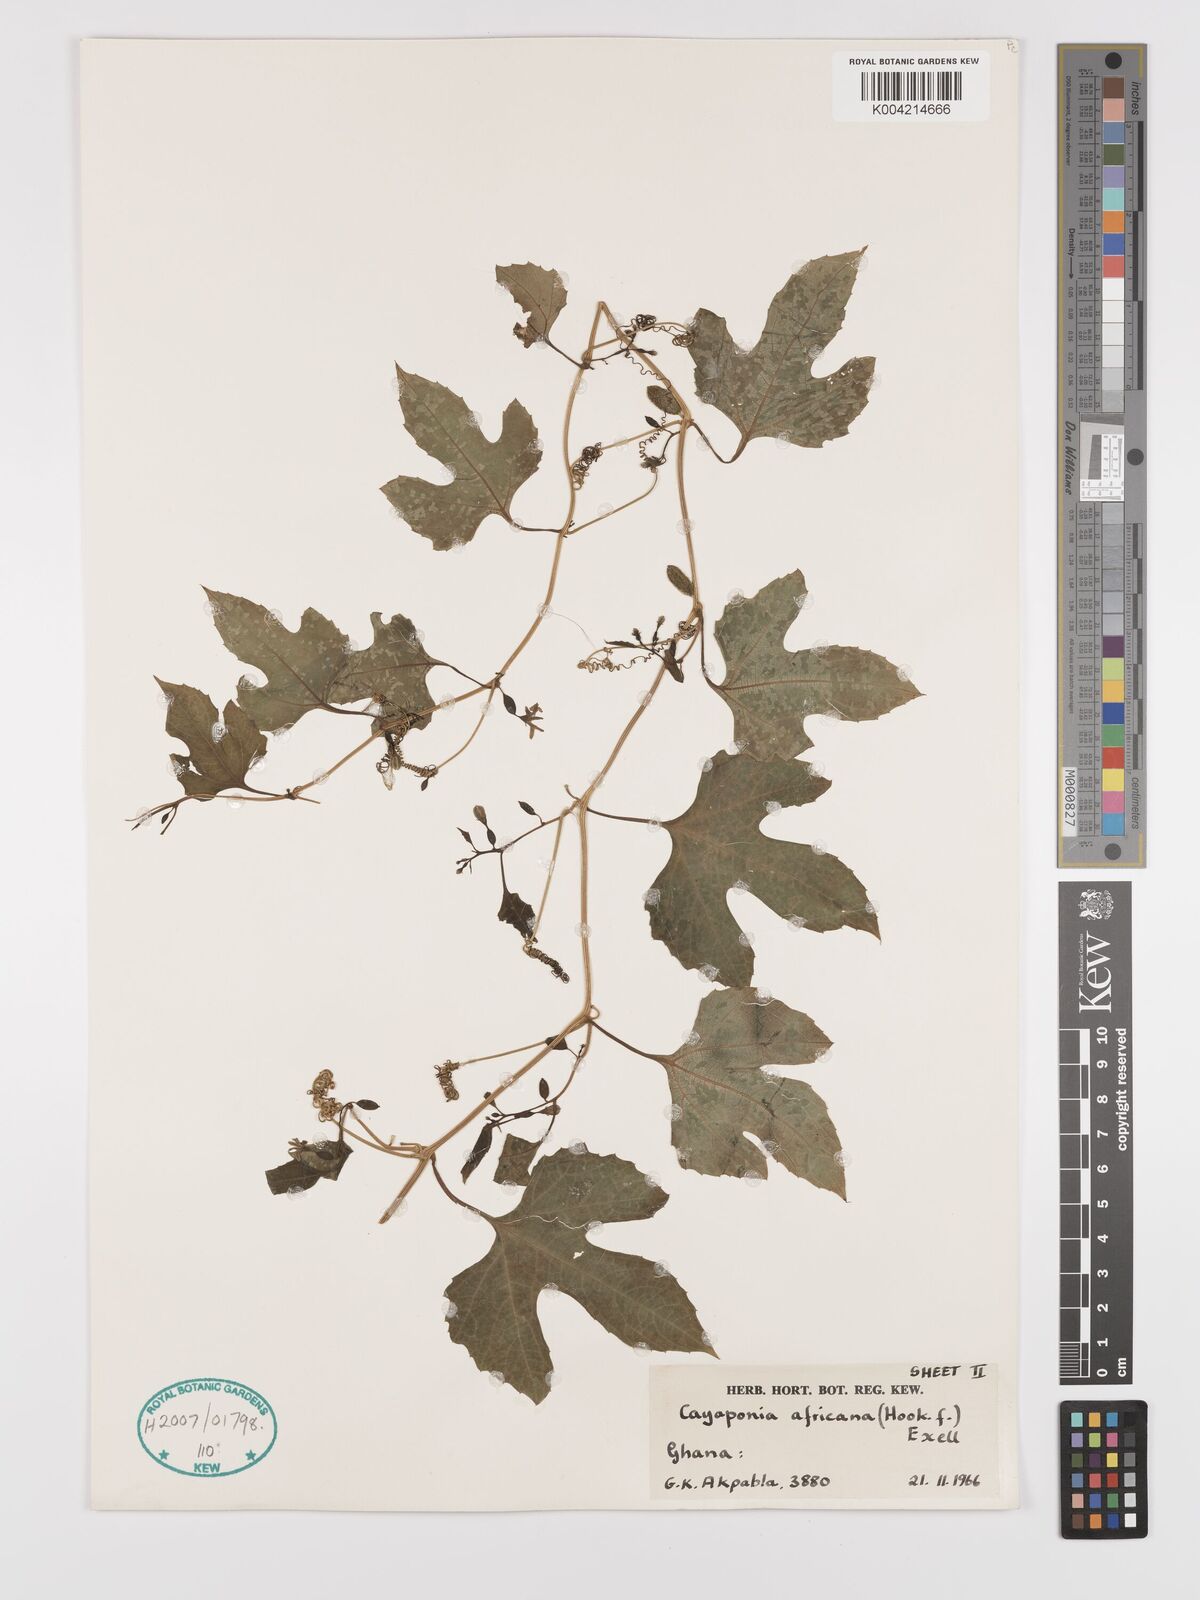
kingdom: Plantae
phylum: Tracheophyta
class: Magnoliopsida
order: Cucurbitales
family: Cucurbitaceae
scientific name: Cucurbitaceae
